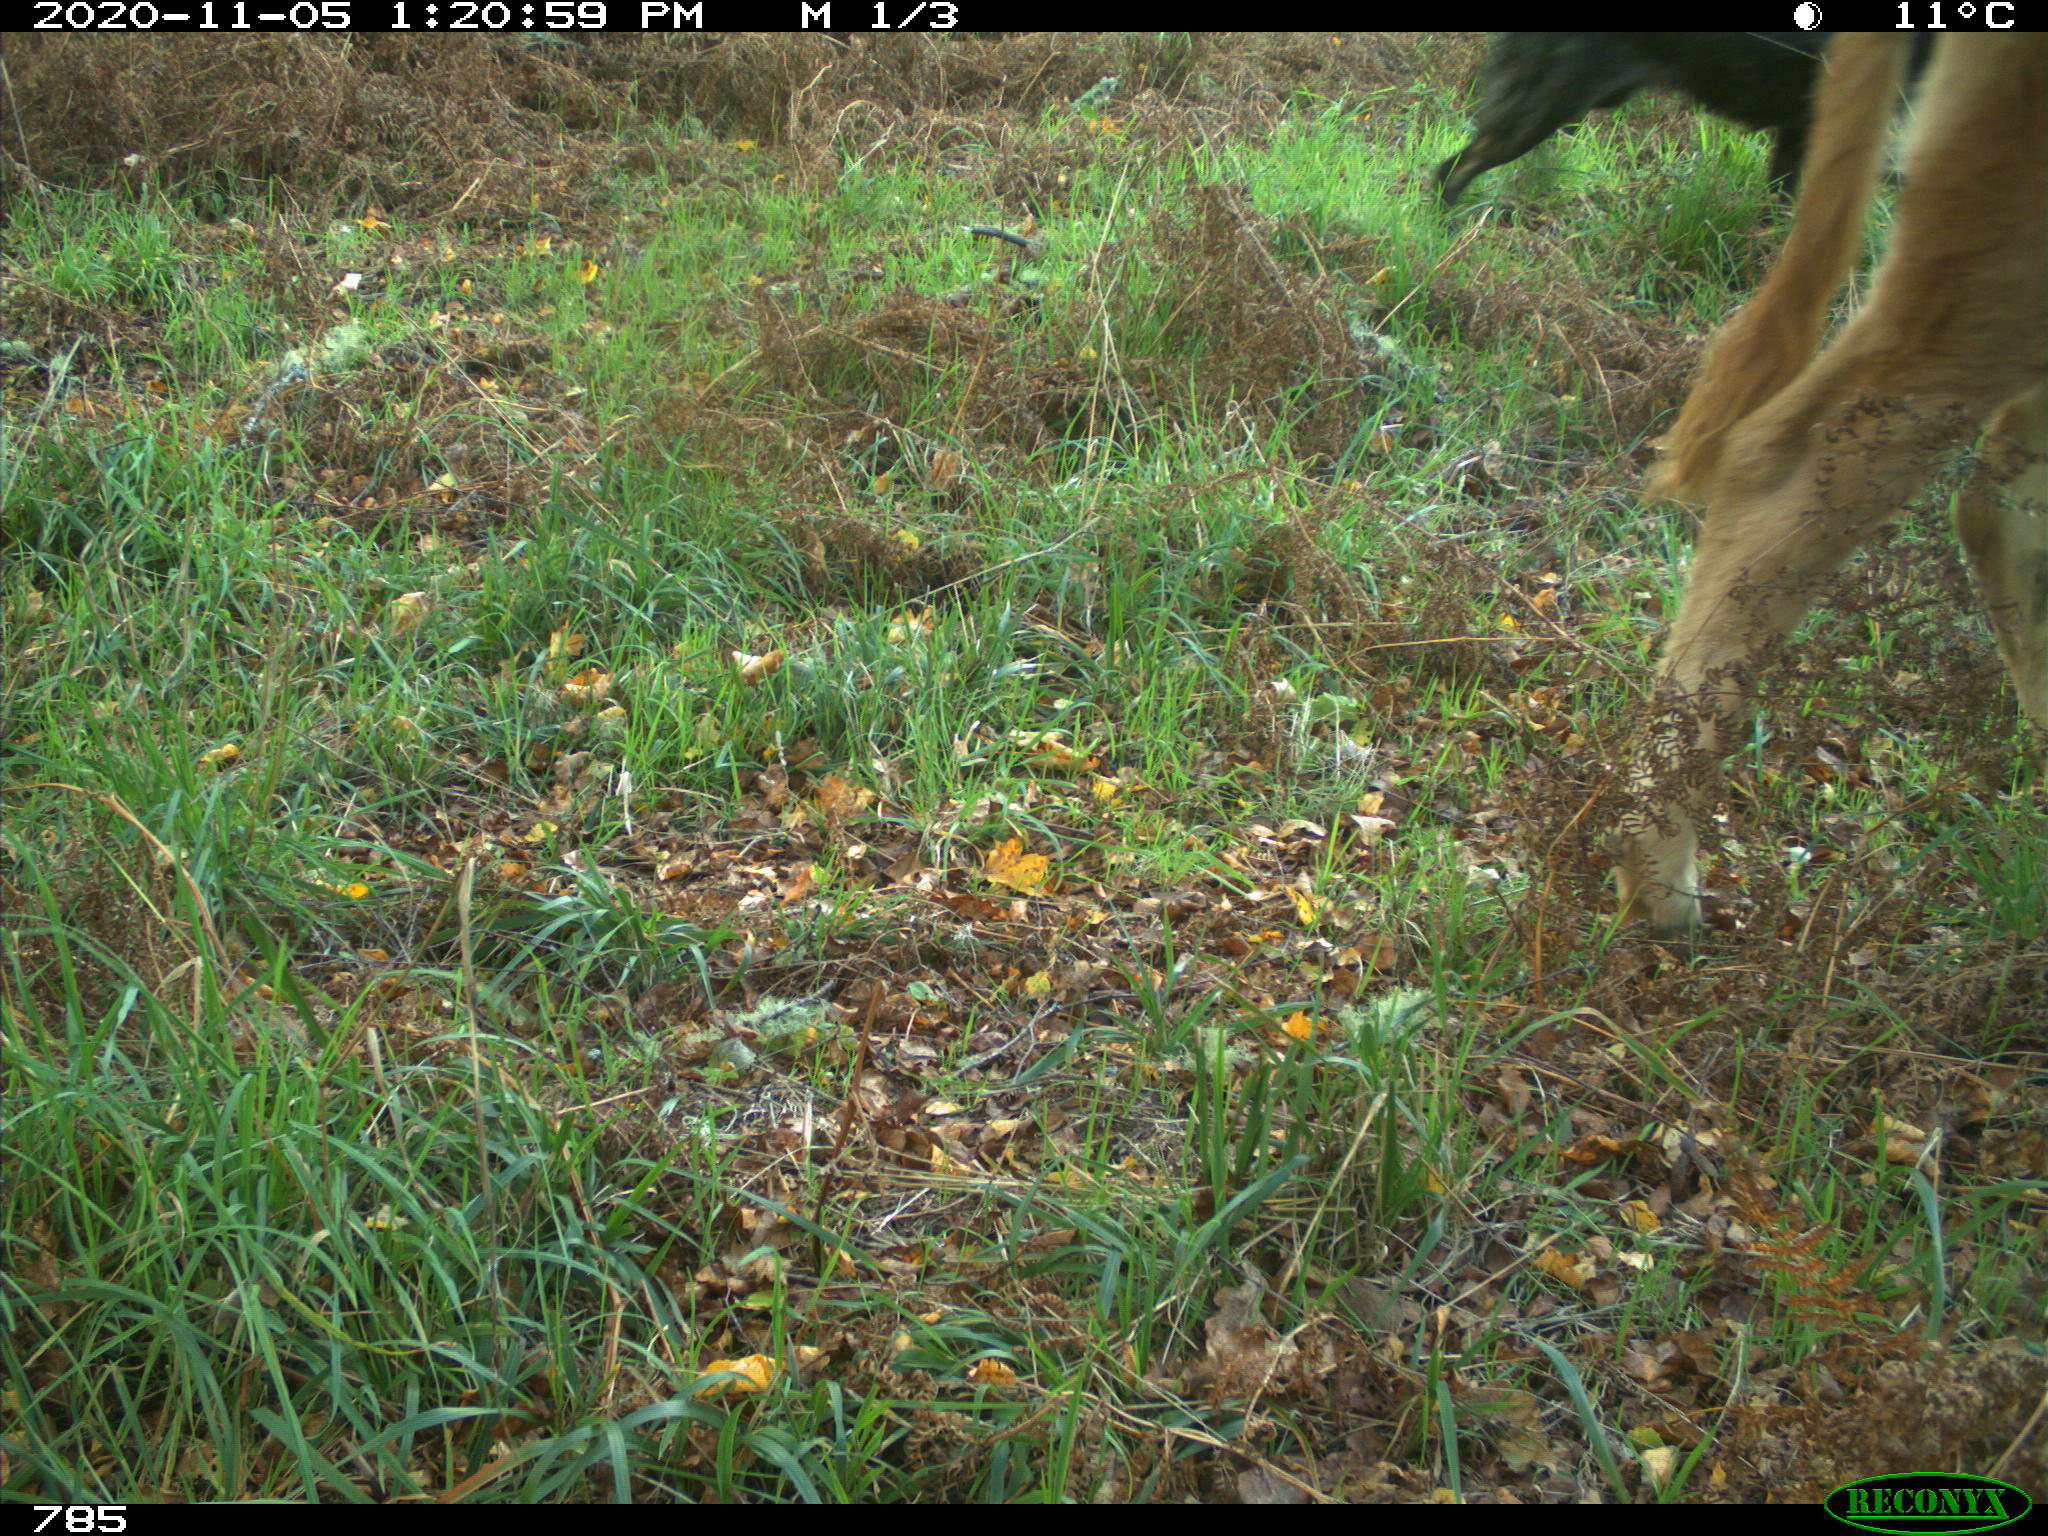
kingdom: Animalia
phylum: Chordata
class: Mammalia
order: Carnivora
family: Canidae
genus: Canis
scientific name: Canis lupus
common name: Gray wolf
